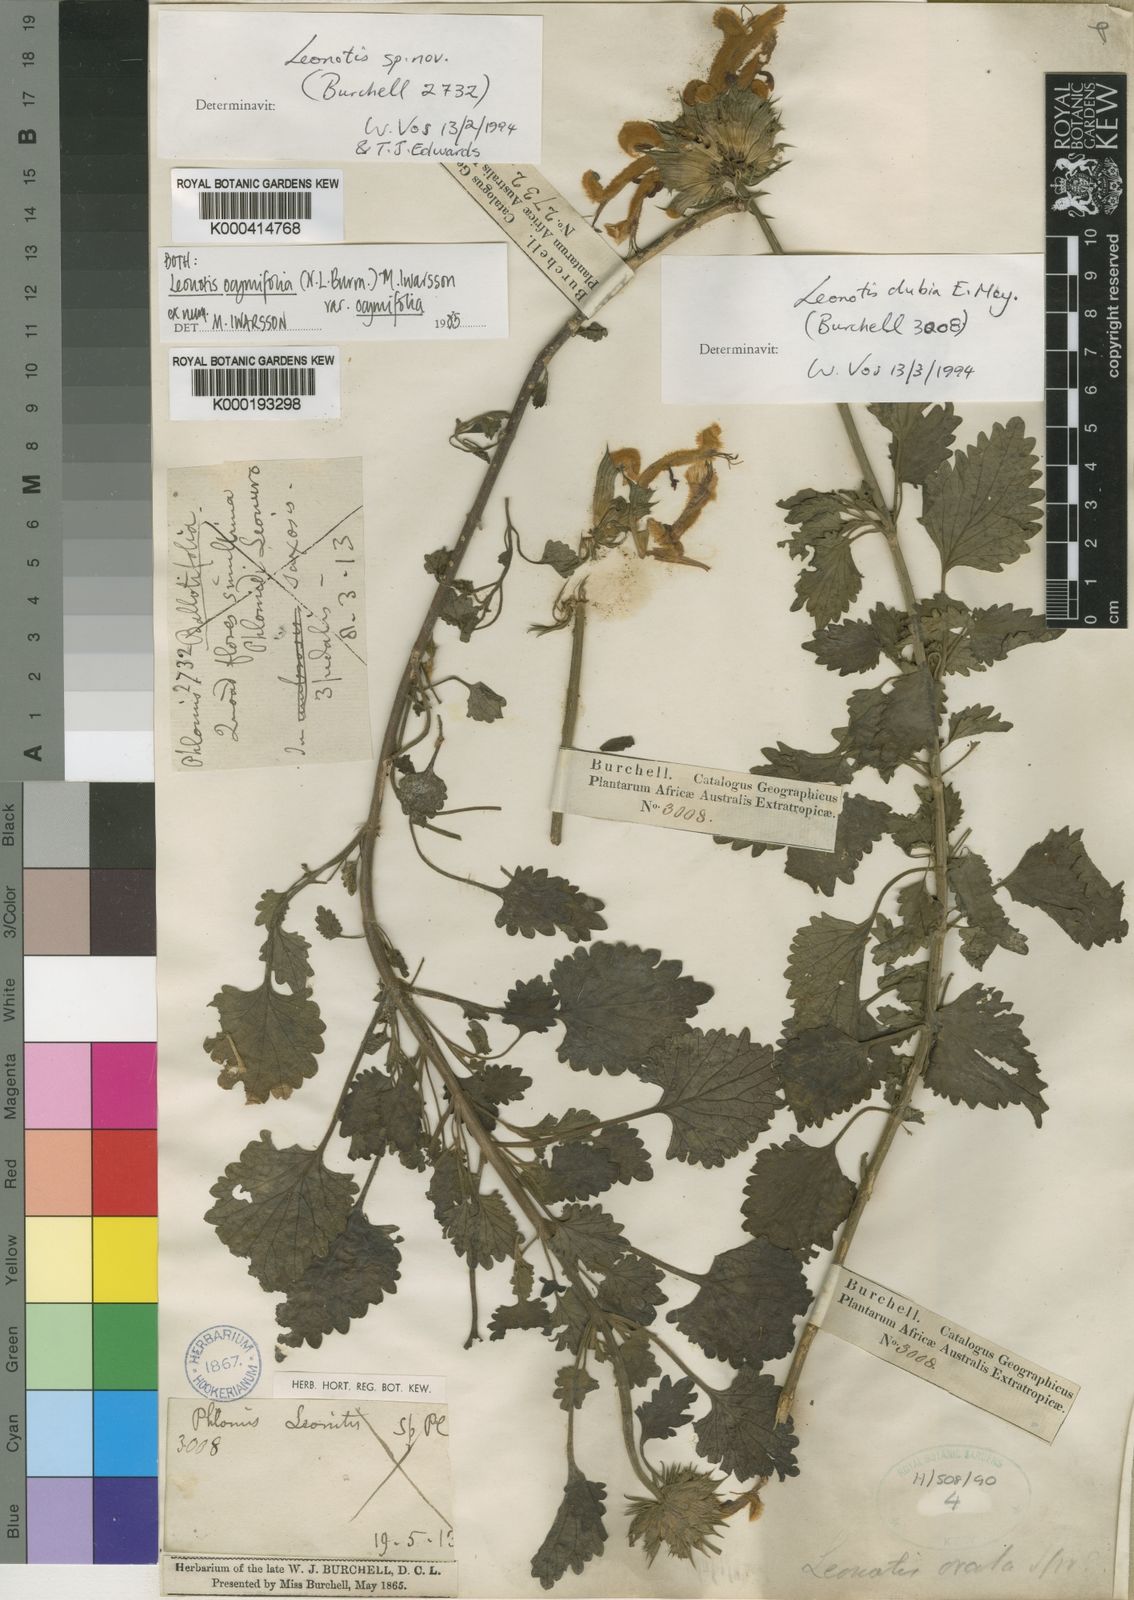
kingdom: Plantae
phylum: Tracheophyta
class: Magnoliopsida
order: Lamiales
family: Lamiaceae
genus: Leonotis
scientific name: Leonotis ocymifolia
